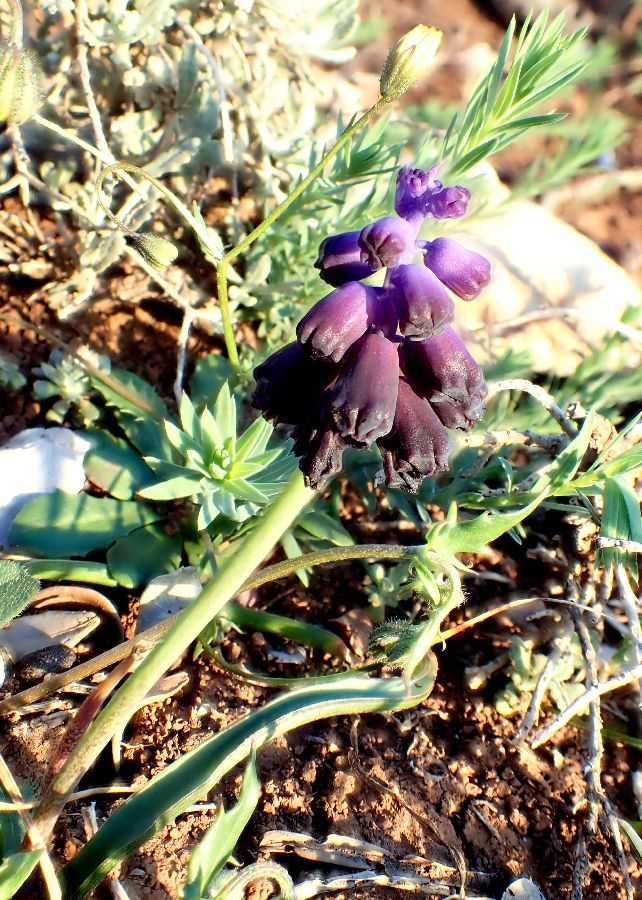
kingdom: Plantae
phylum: Tracheophyta
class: Liliopsida
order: Asparagales
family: Asparagaceae
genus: Muscari
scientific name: Muscari commutatum
